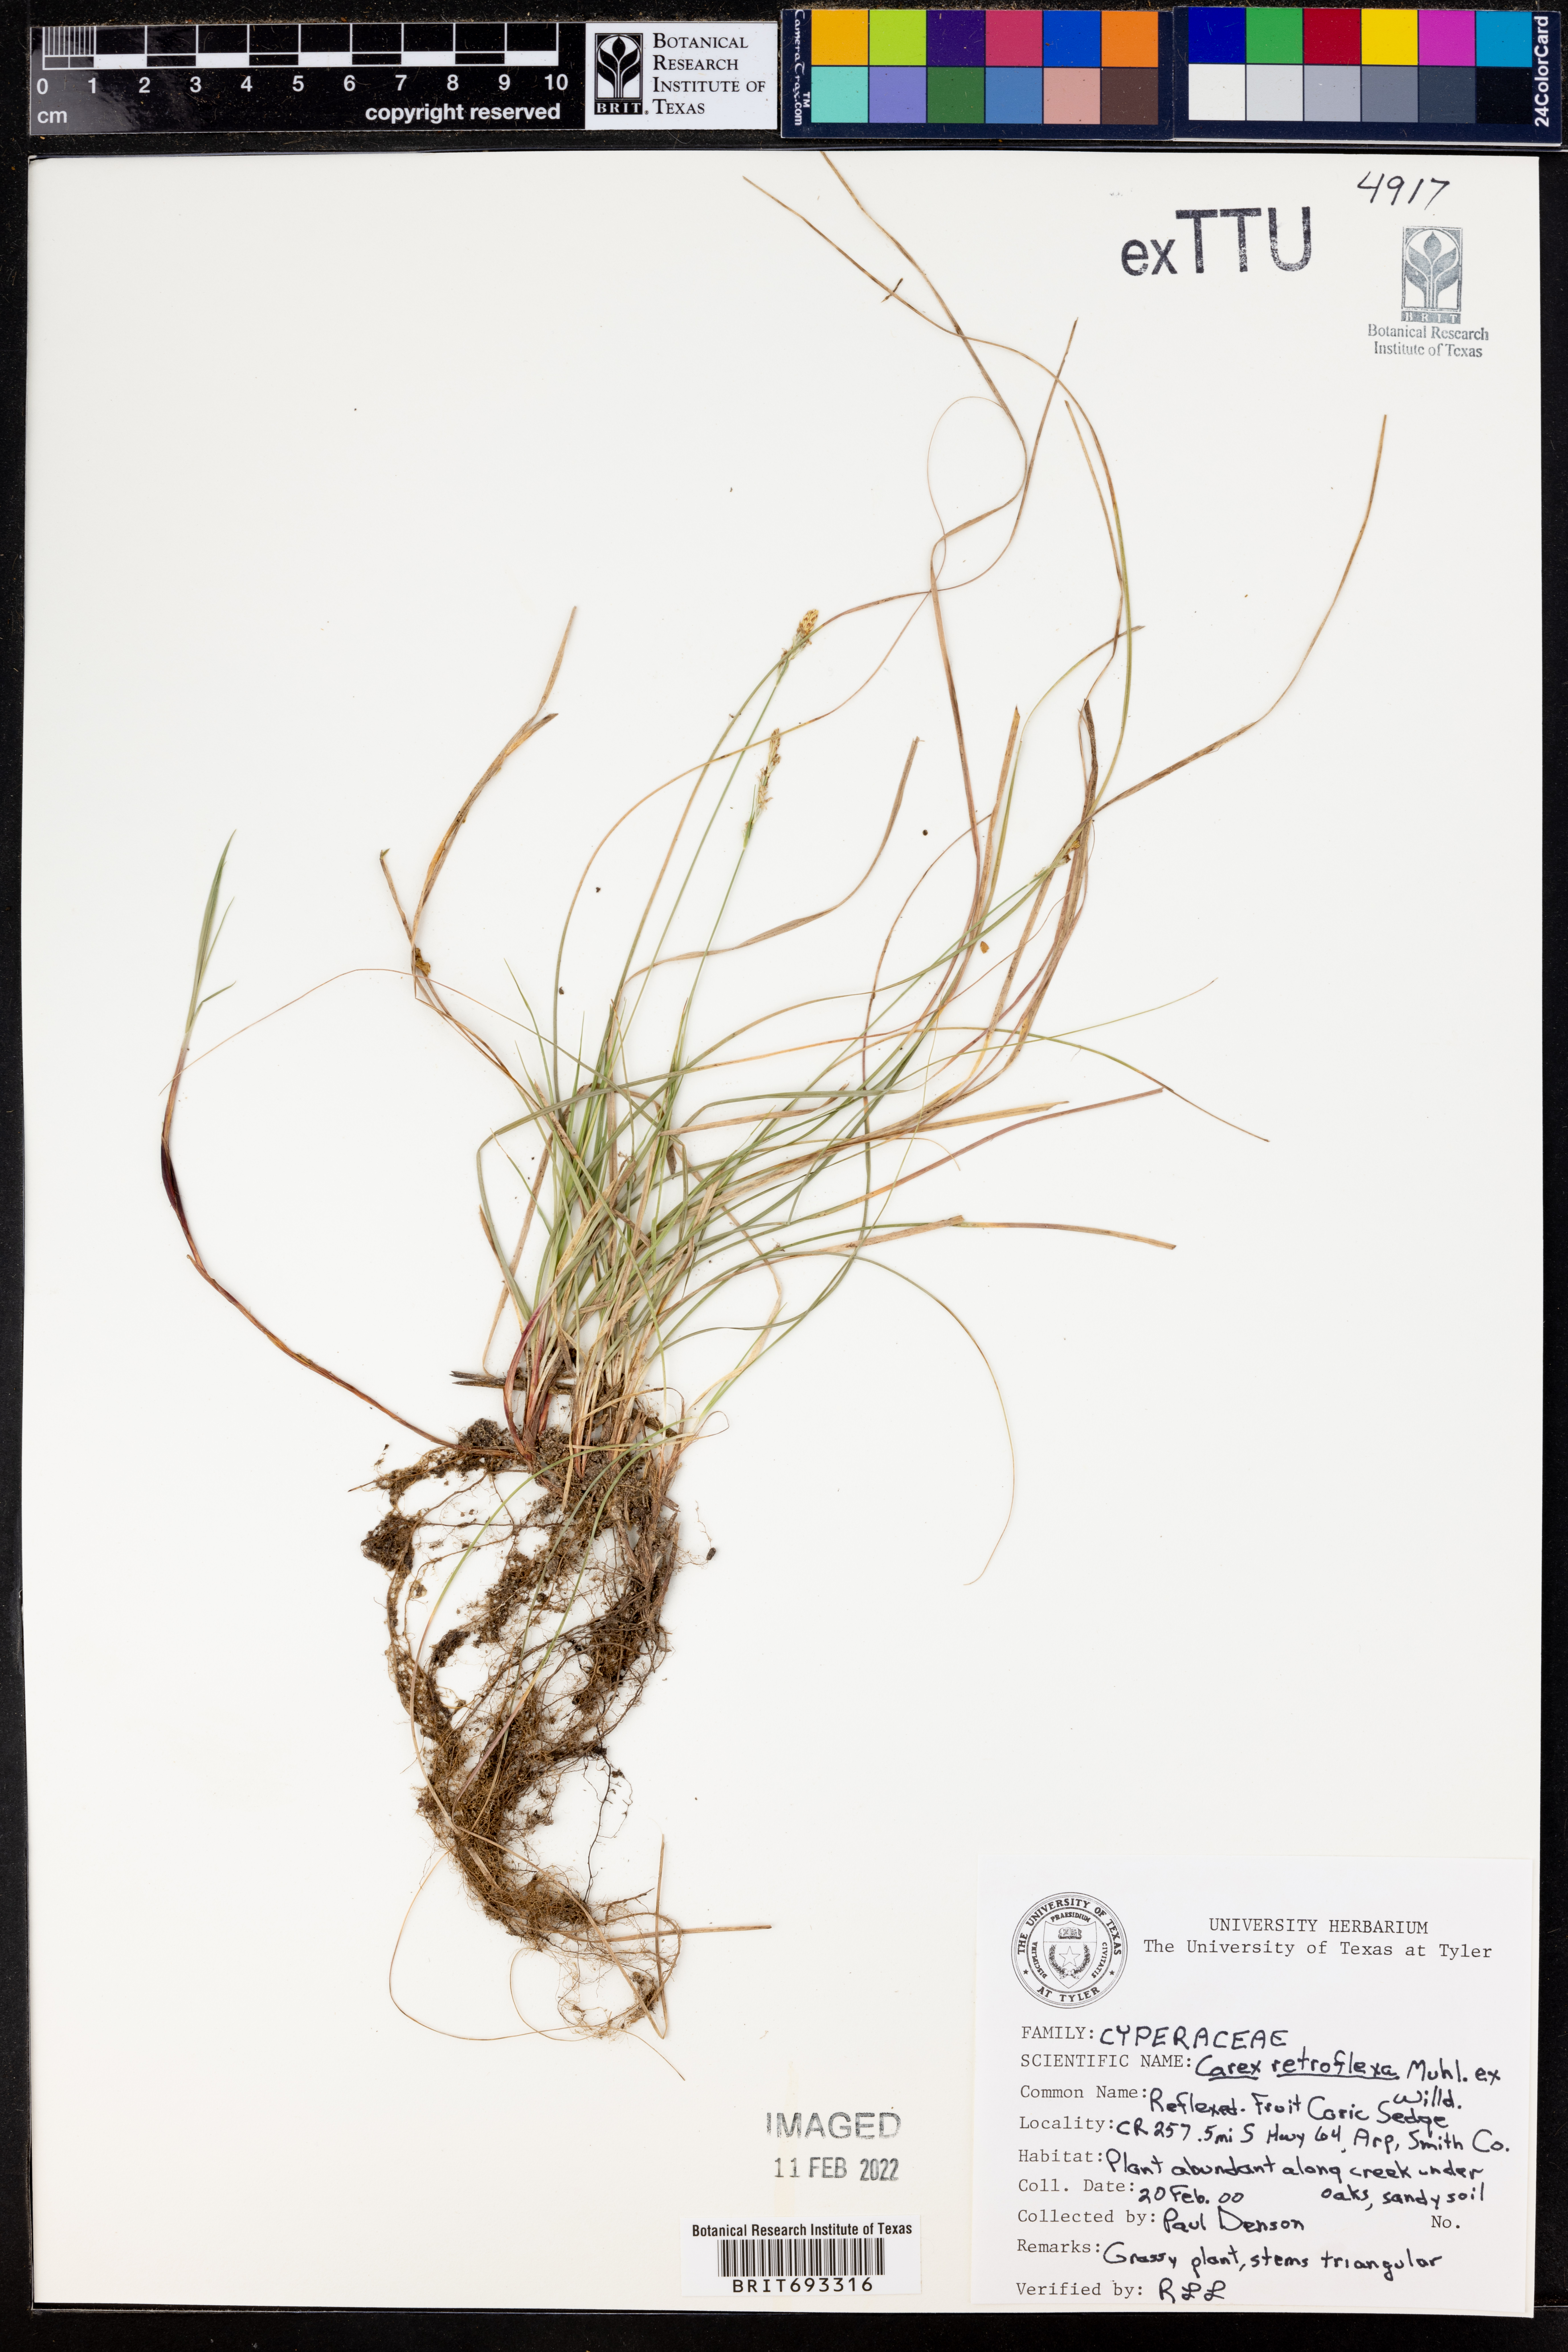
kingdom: Plantae
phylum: Tracheophyta
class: Liliopsida
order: Poales
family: Cyperaceae
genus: Carex
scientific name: Carex retroflexa
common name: Reflexed sedge
